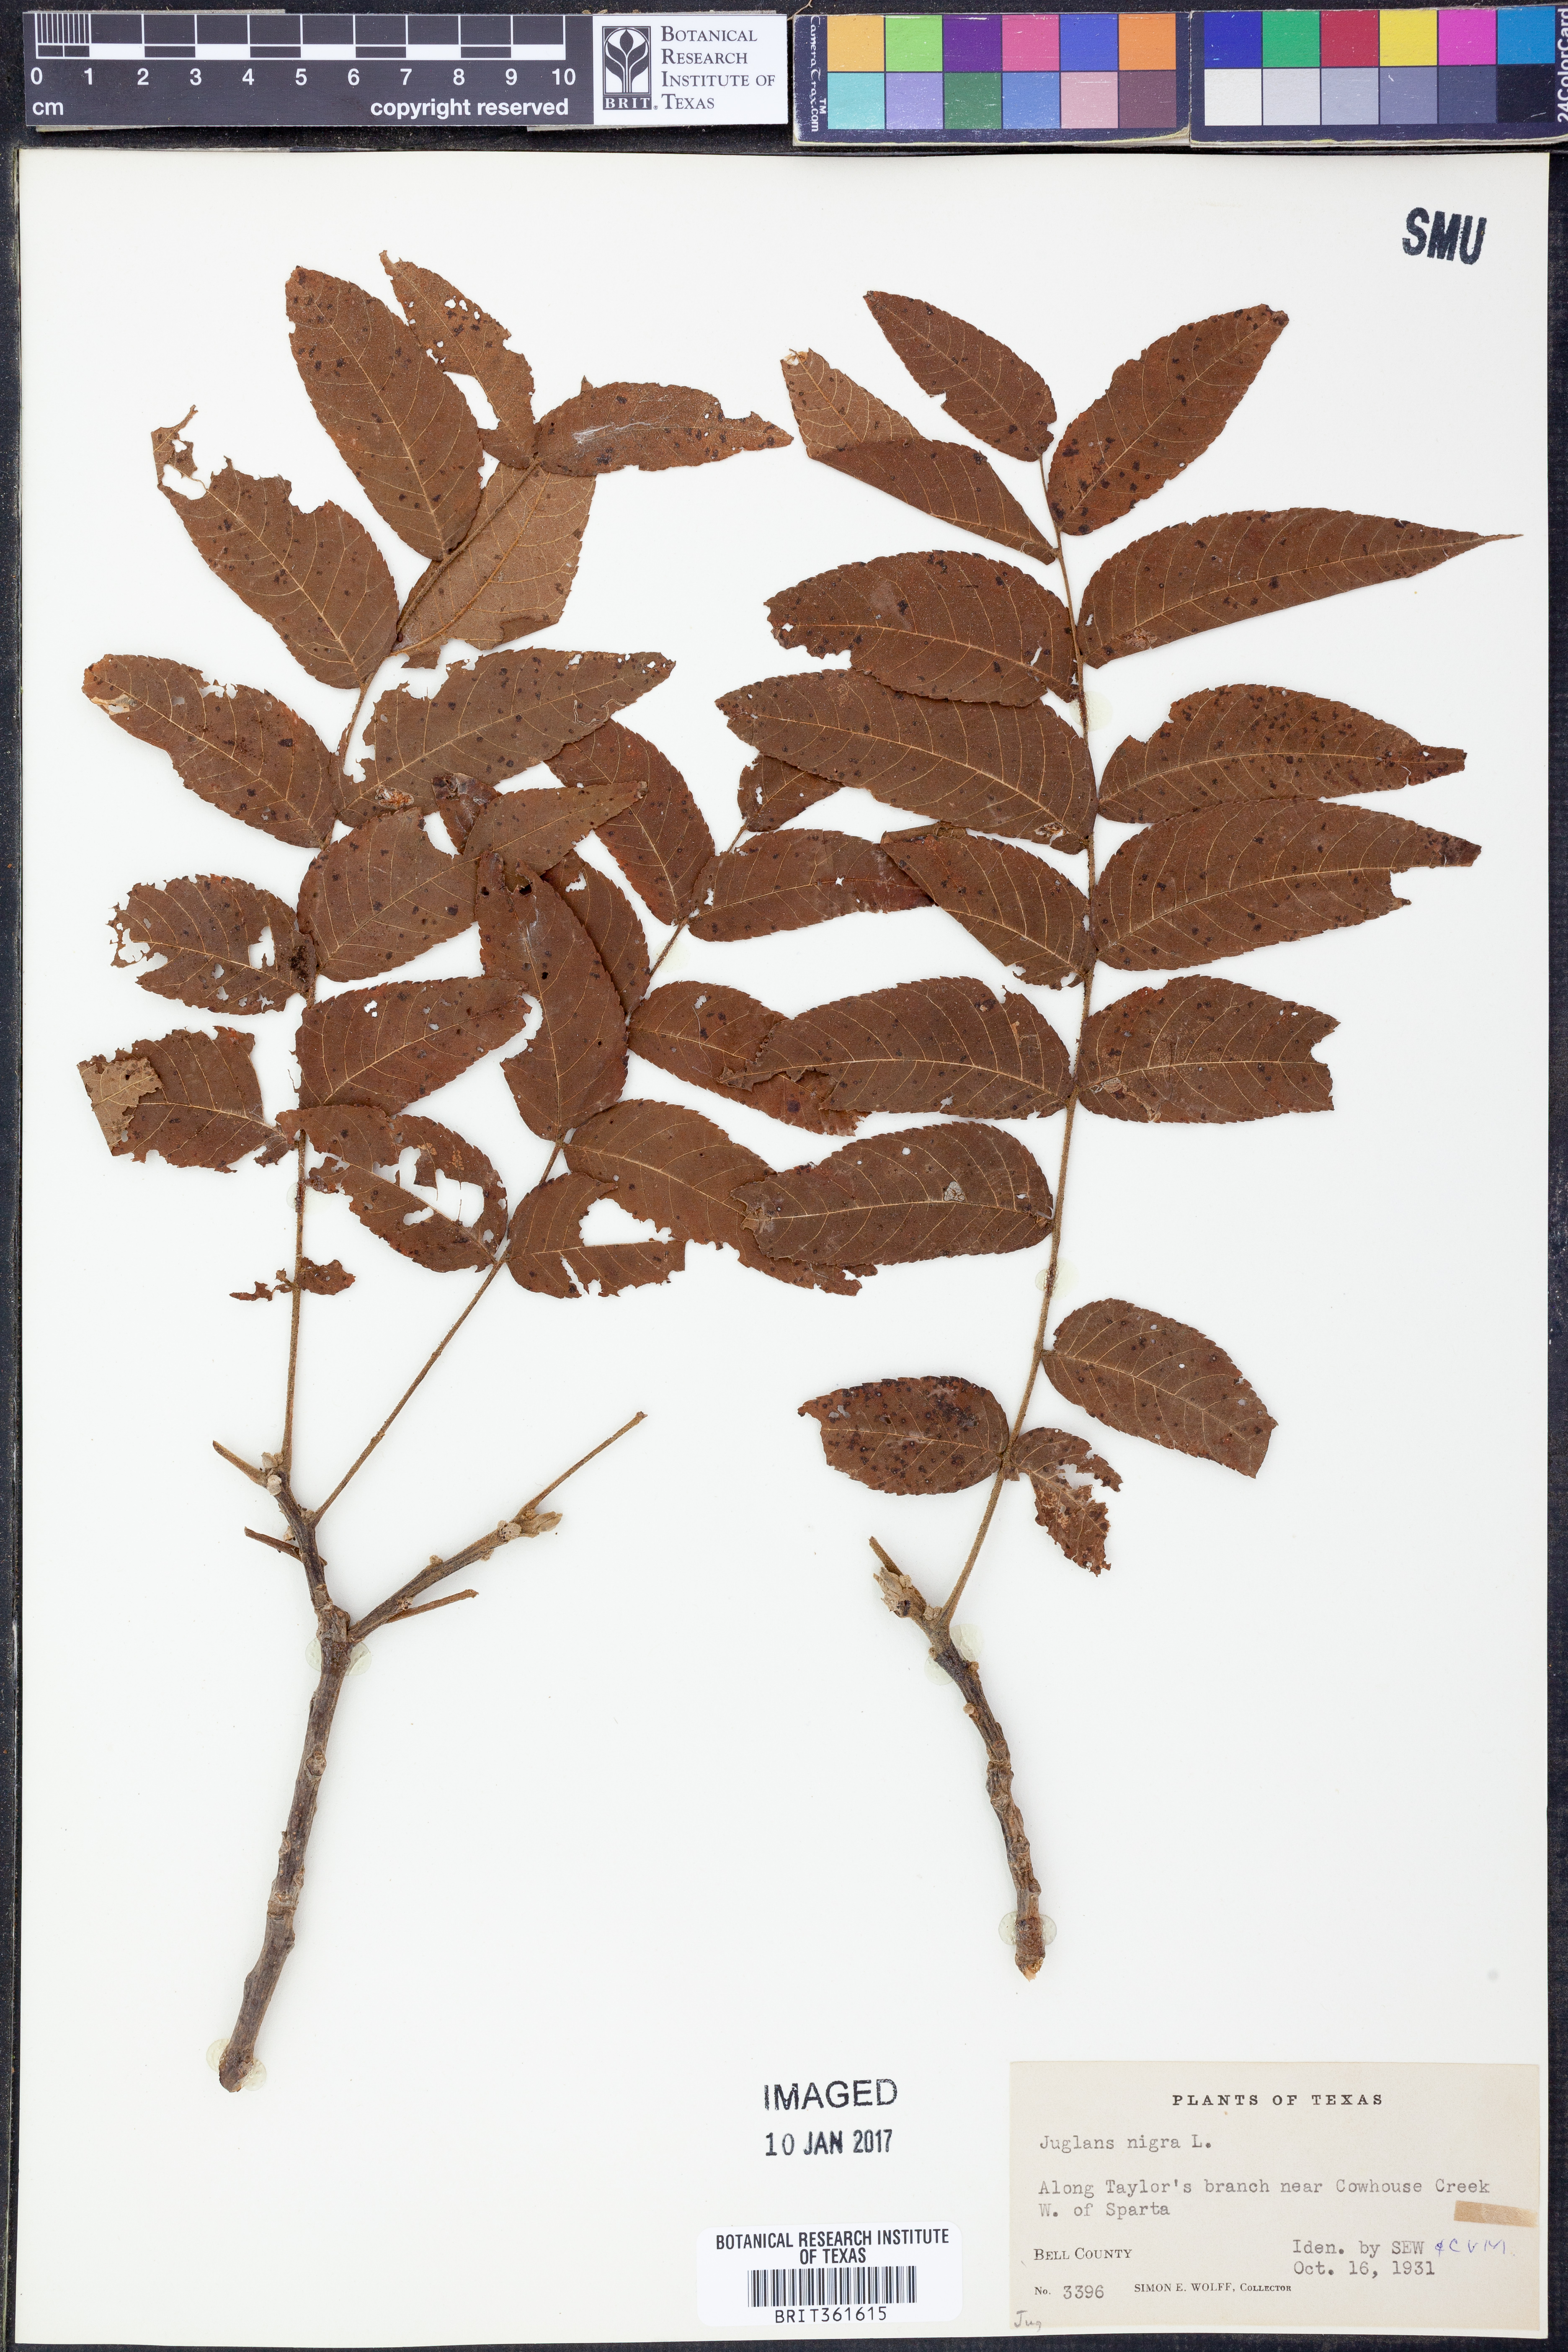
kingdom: Plantae
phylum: Tracheophyta
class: Magnoliopsida
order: Fagales
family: Juglandaceae
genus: Juglans
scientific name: Juglans nigra
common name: Black walnut
